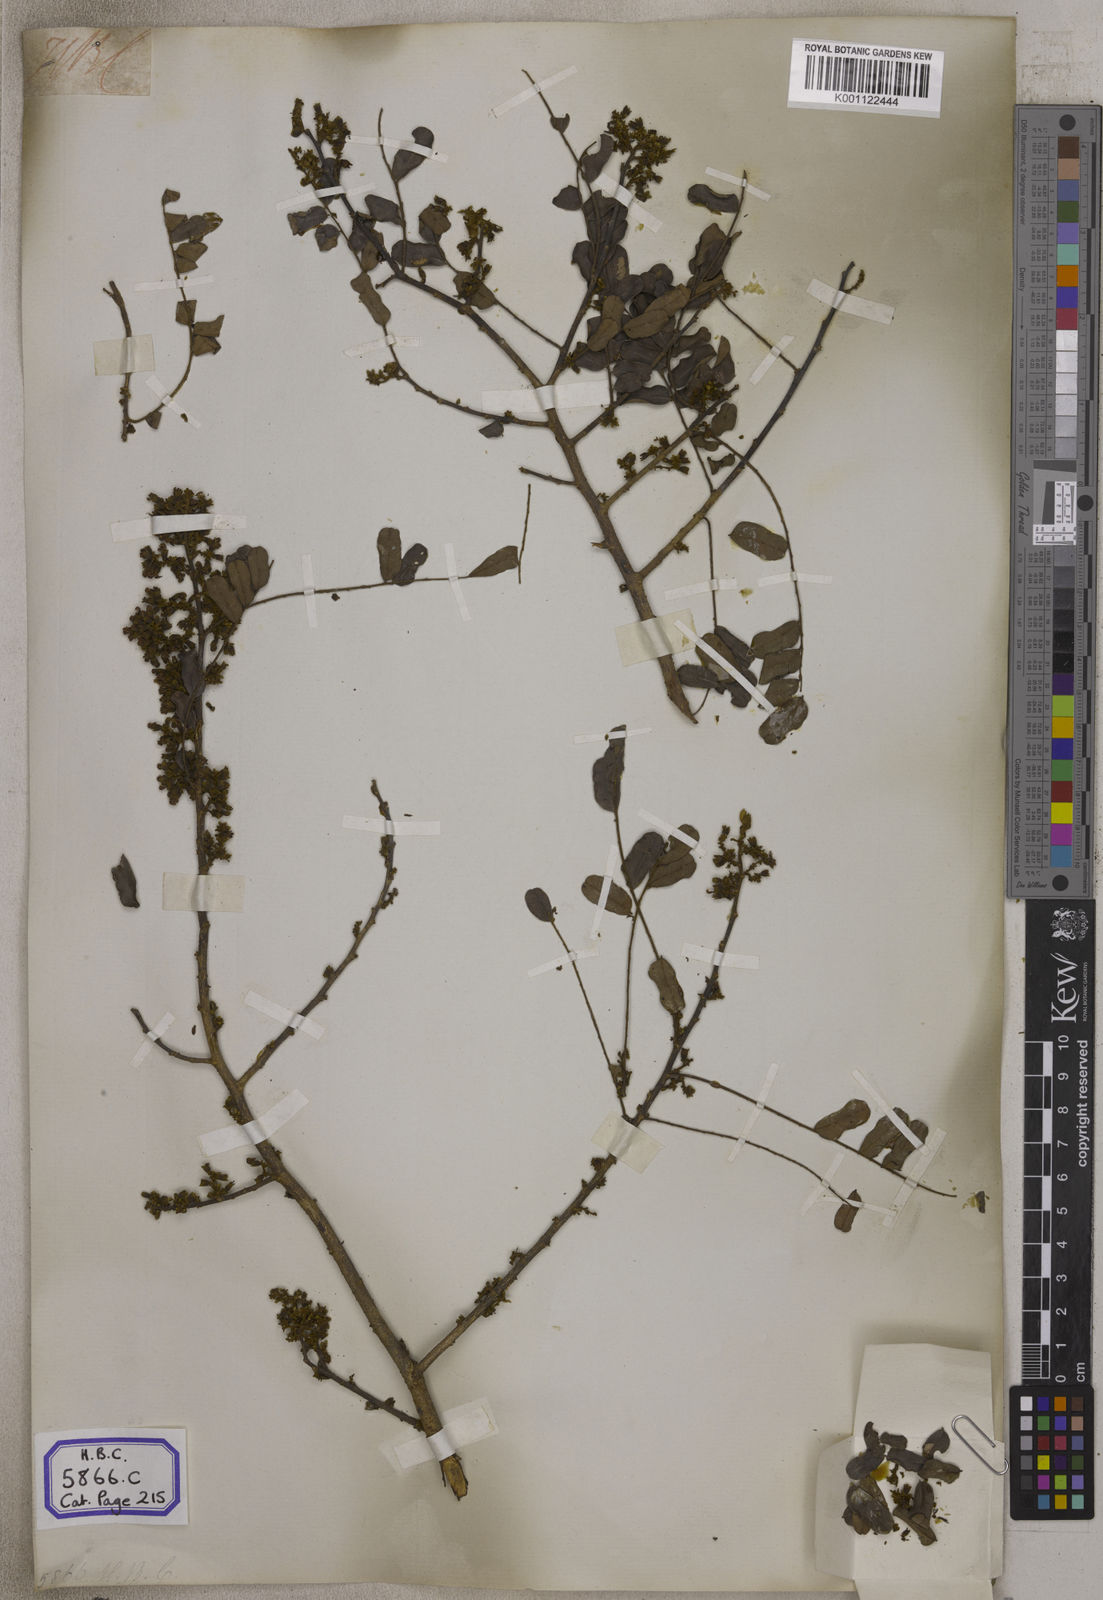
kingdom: Plantae
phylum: Tracheophyta
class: Magnoliopsida
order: Fabales
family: Fabaceae
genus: Dalbergia
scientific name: Dalbergia
